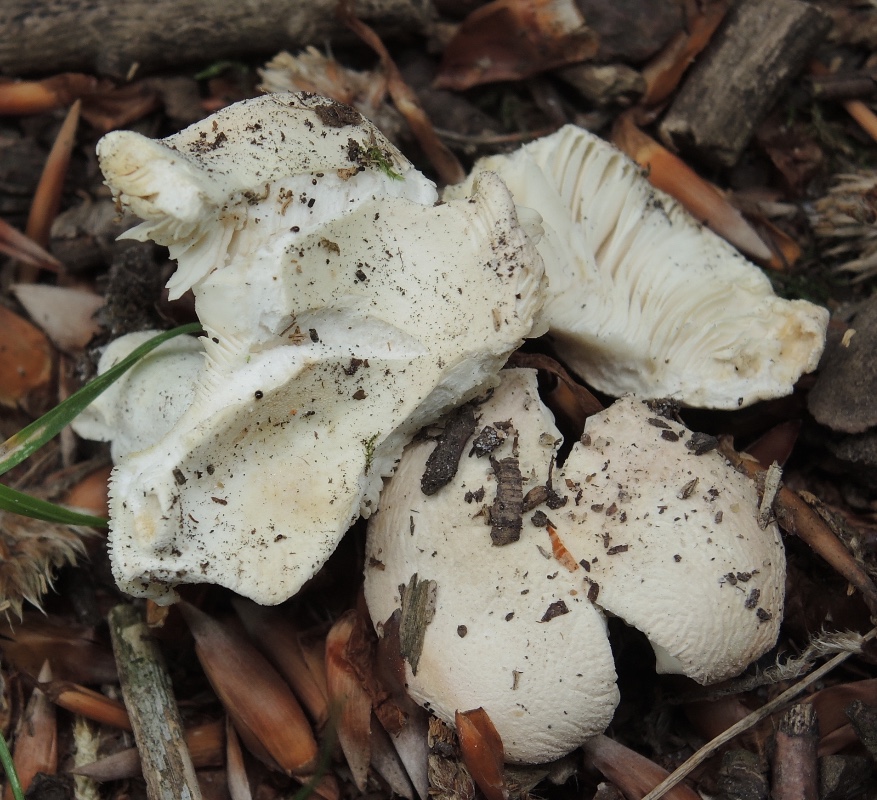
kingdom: Fungi
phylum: Basidiomycota
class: Agaricomycetes
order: Russulales
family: Russulaceae
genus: Russula
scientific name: Russula roseoaurantia
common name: kornet skørhat
